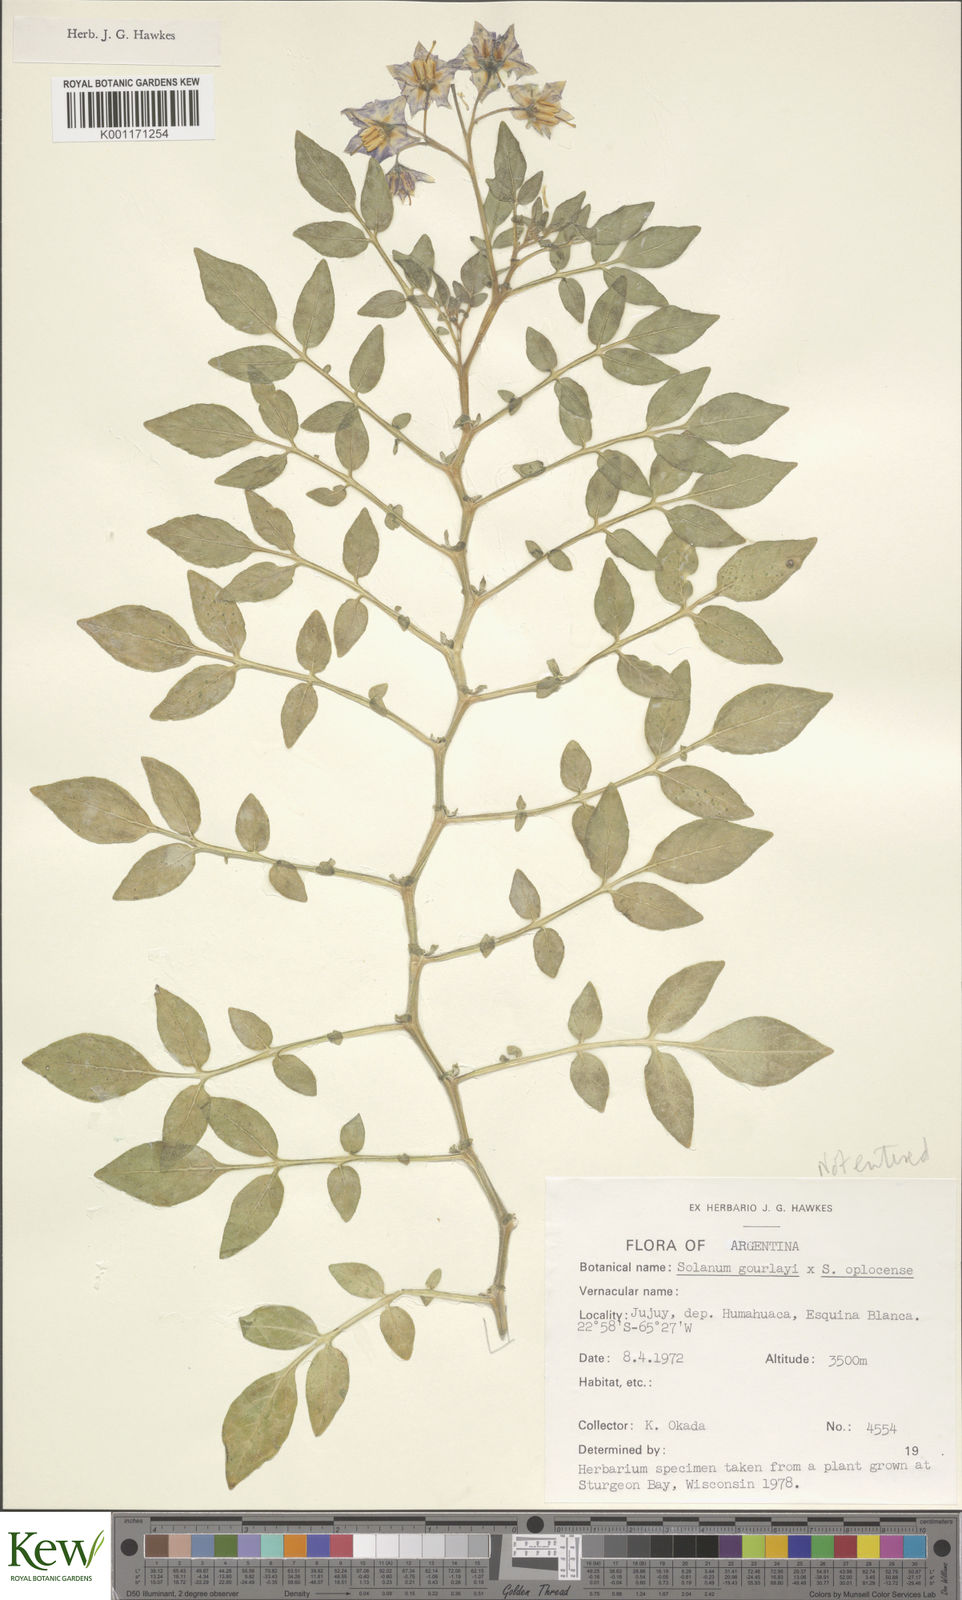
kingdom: Plantae
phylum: Tracheophyta
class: Magnoliopsida
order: Solanales
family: Solanaceae
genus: Solanum
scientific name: Solanum brevicaule
